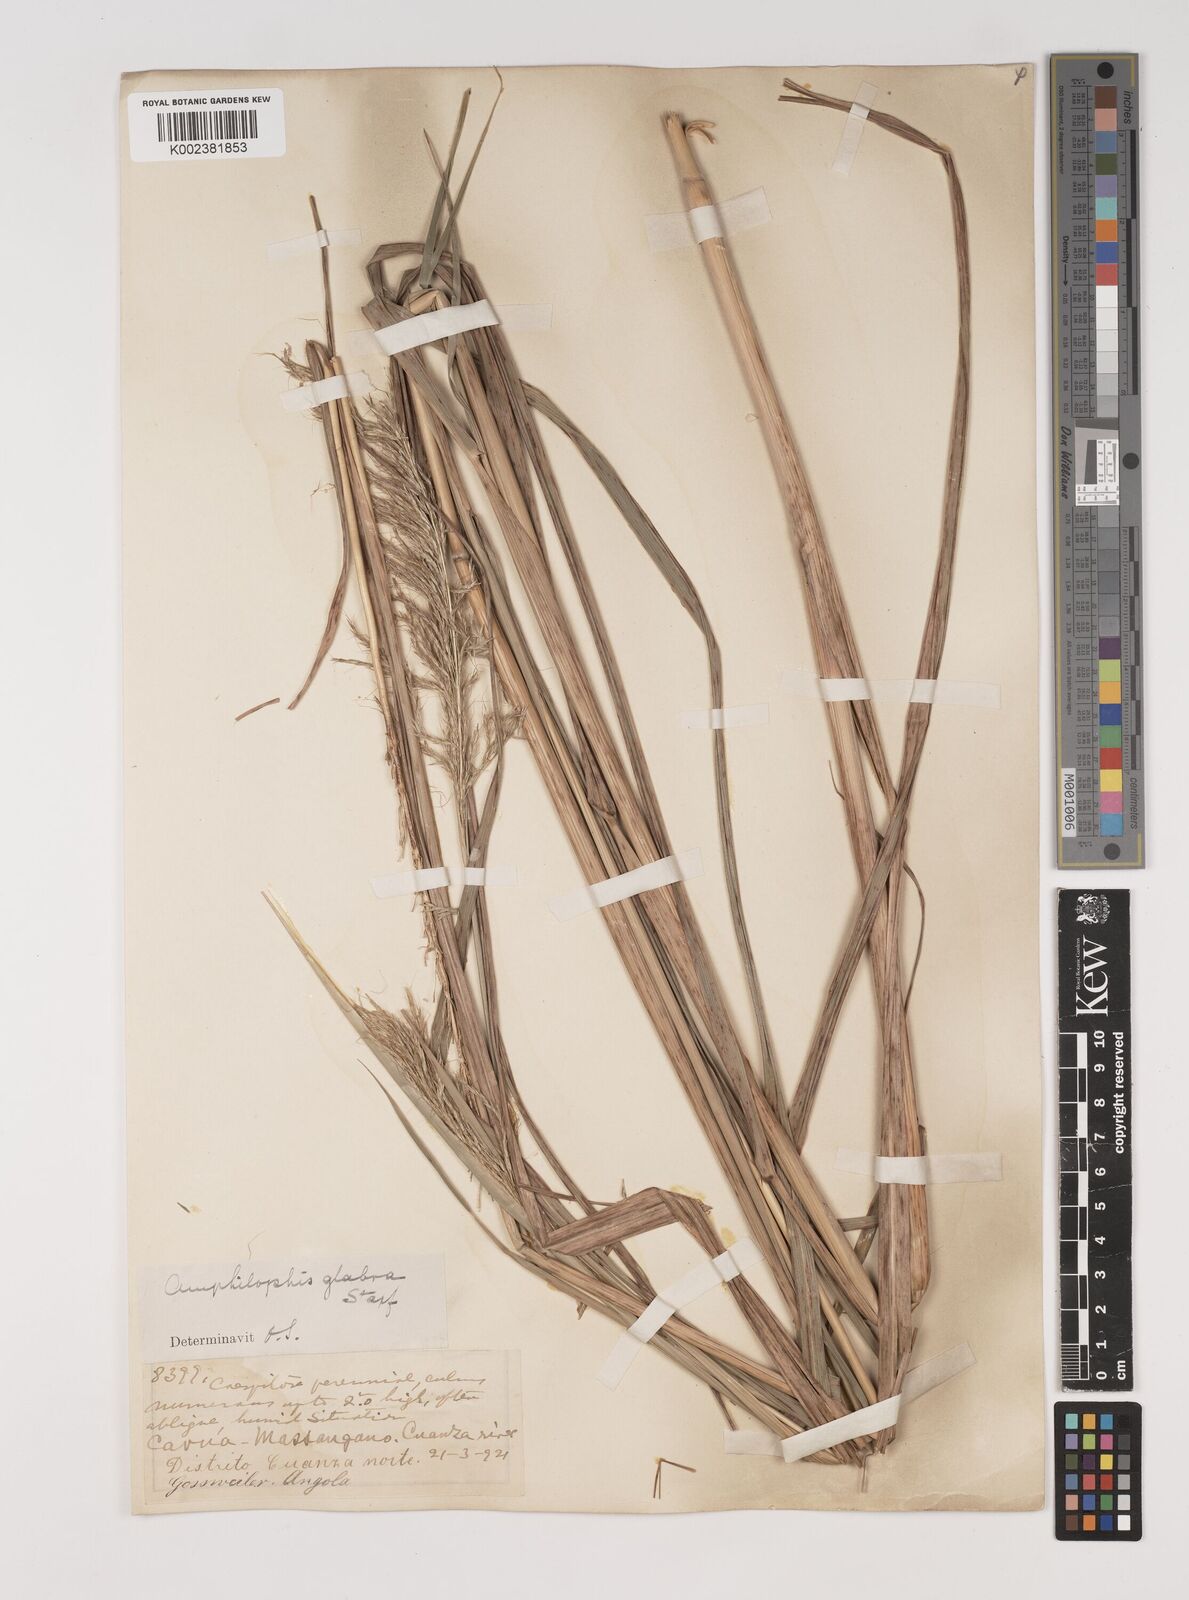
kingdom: Plantae
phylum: Tracheophyta
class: Liliopsida
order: Poales
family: Poaceae
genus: Bothriochloa
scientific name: Bothriochloa bladhii
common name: Caucasian bluestem
